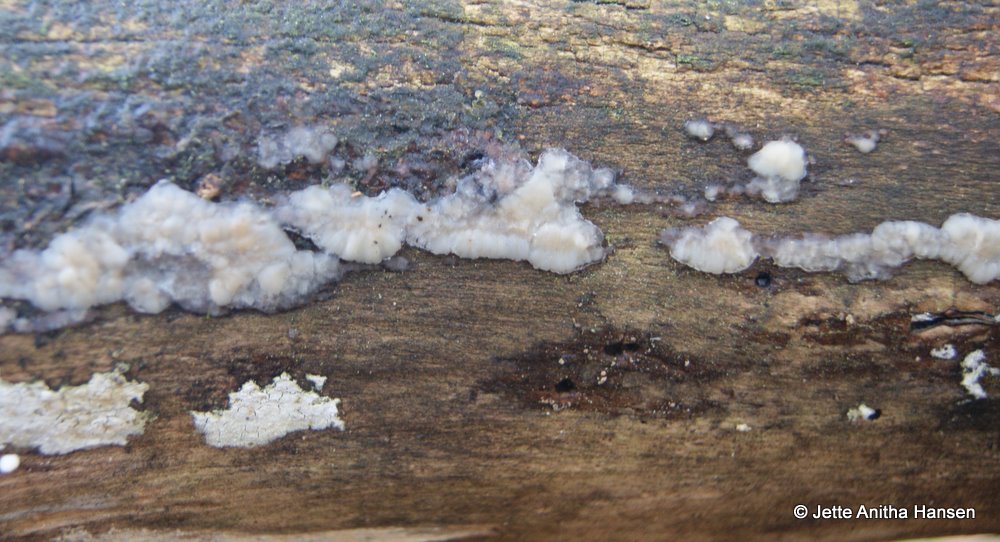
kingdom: Fungi
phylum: Basidiomycota
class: Agaricomycetes
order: Auriculariales
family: Auriculariaceae
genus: Exidia
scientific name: Exidia thuretiana
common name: hvidlig bævretop
